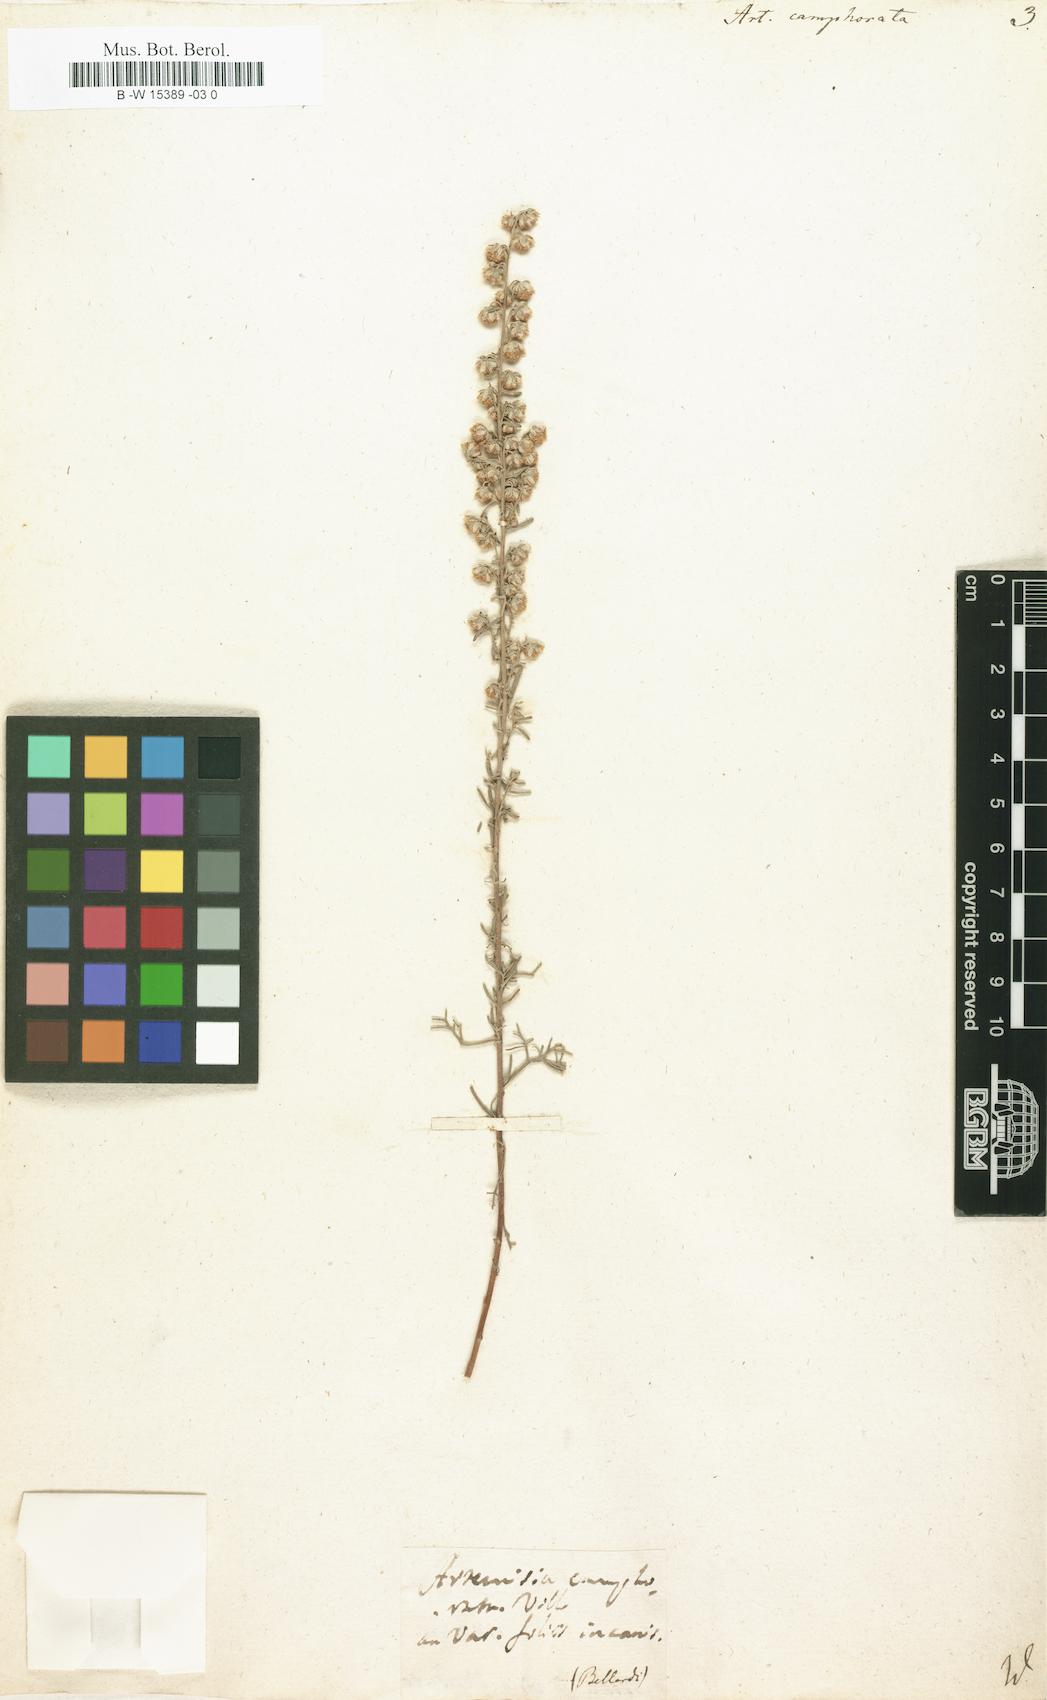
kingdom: Plantae
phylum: Tracheophyta
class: Magnoliopsida
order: Asterales
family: Asteraceae
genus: Artemisia
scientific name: Artemisia alba
